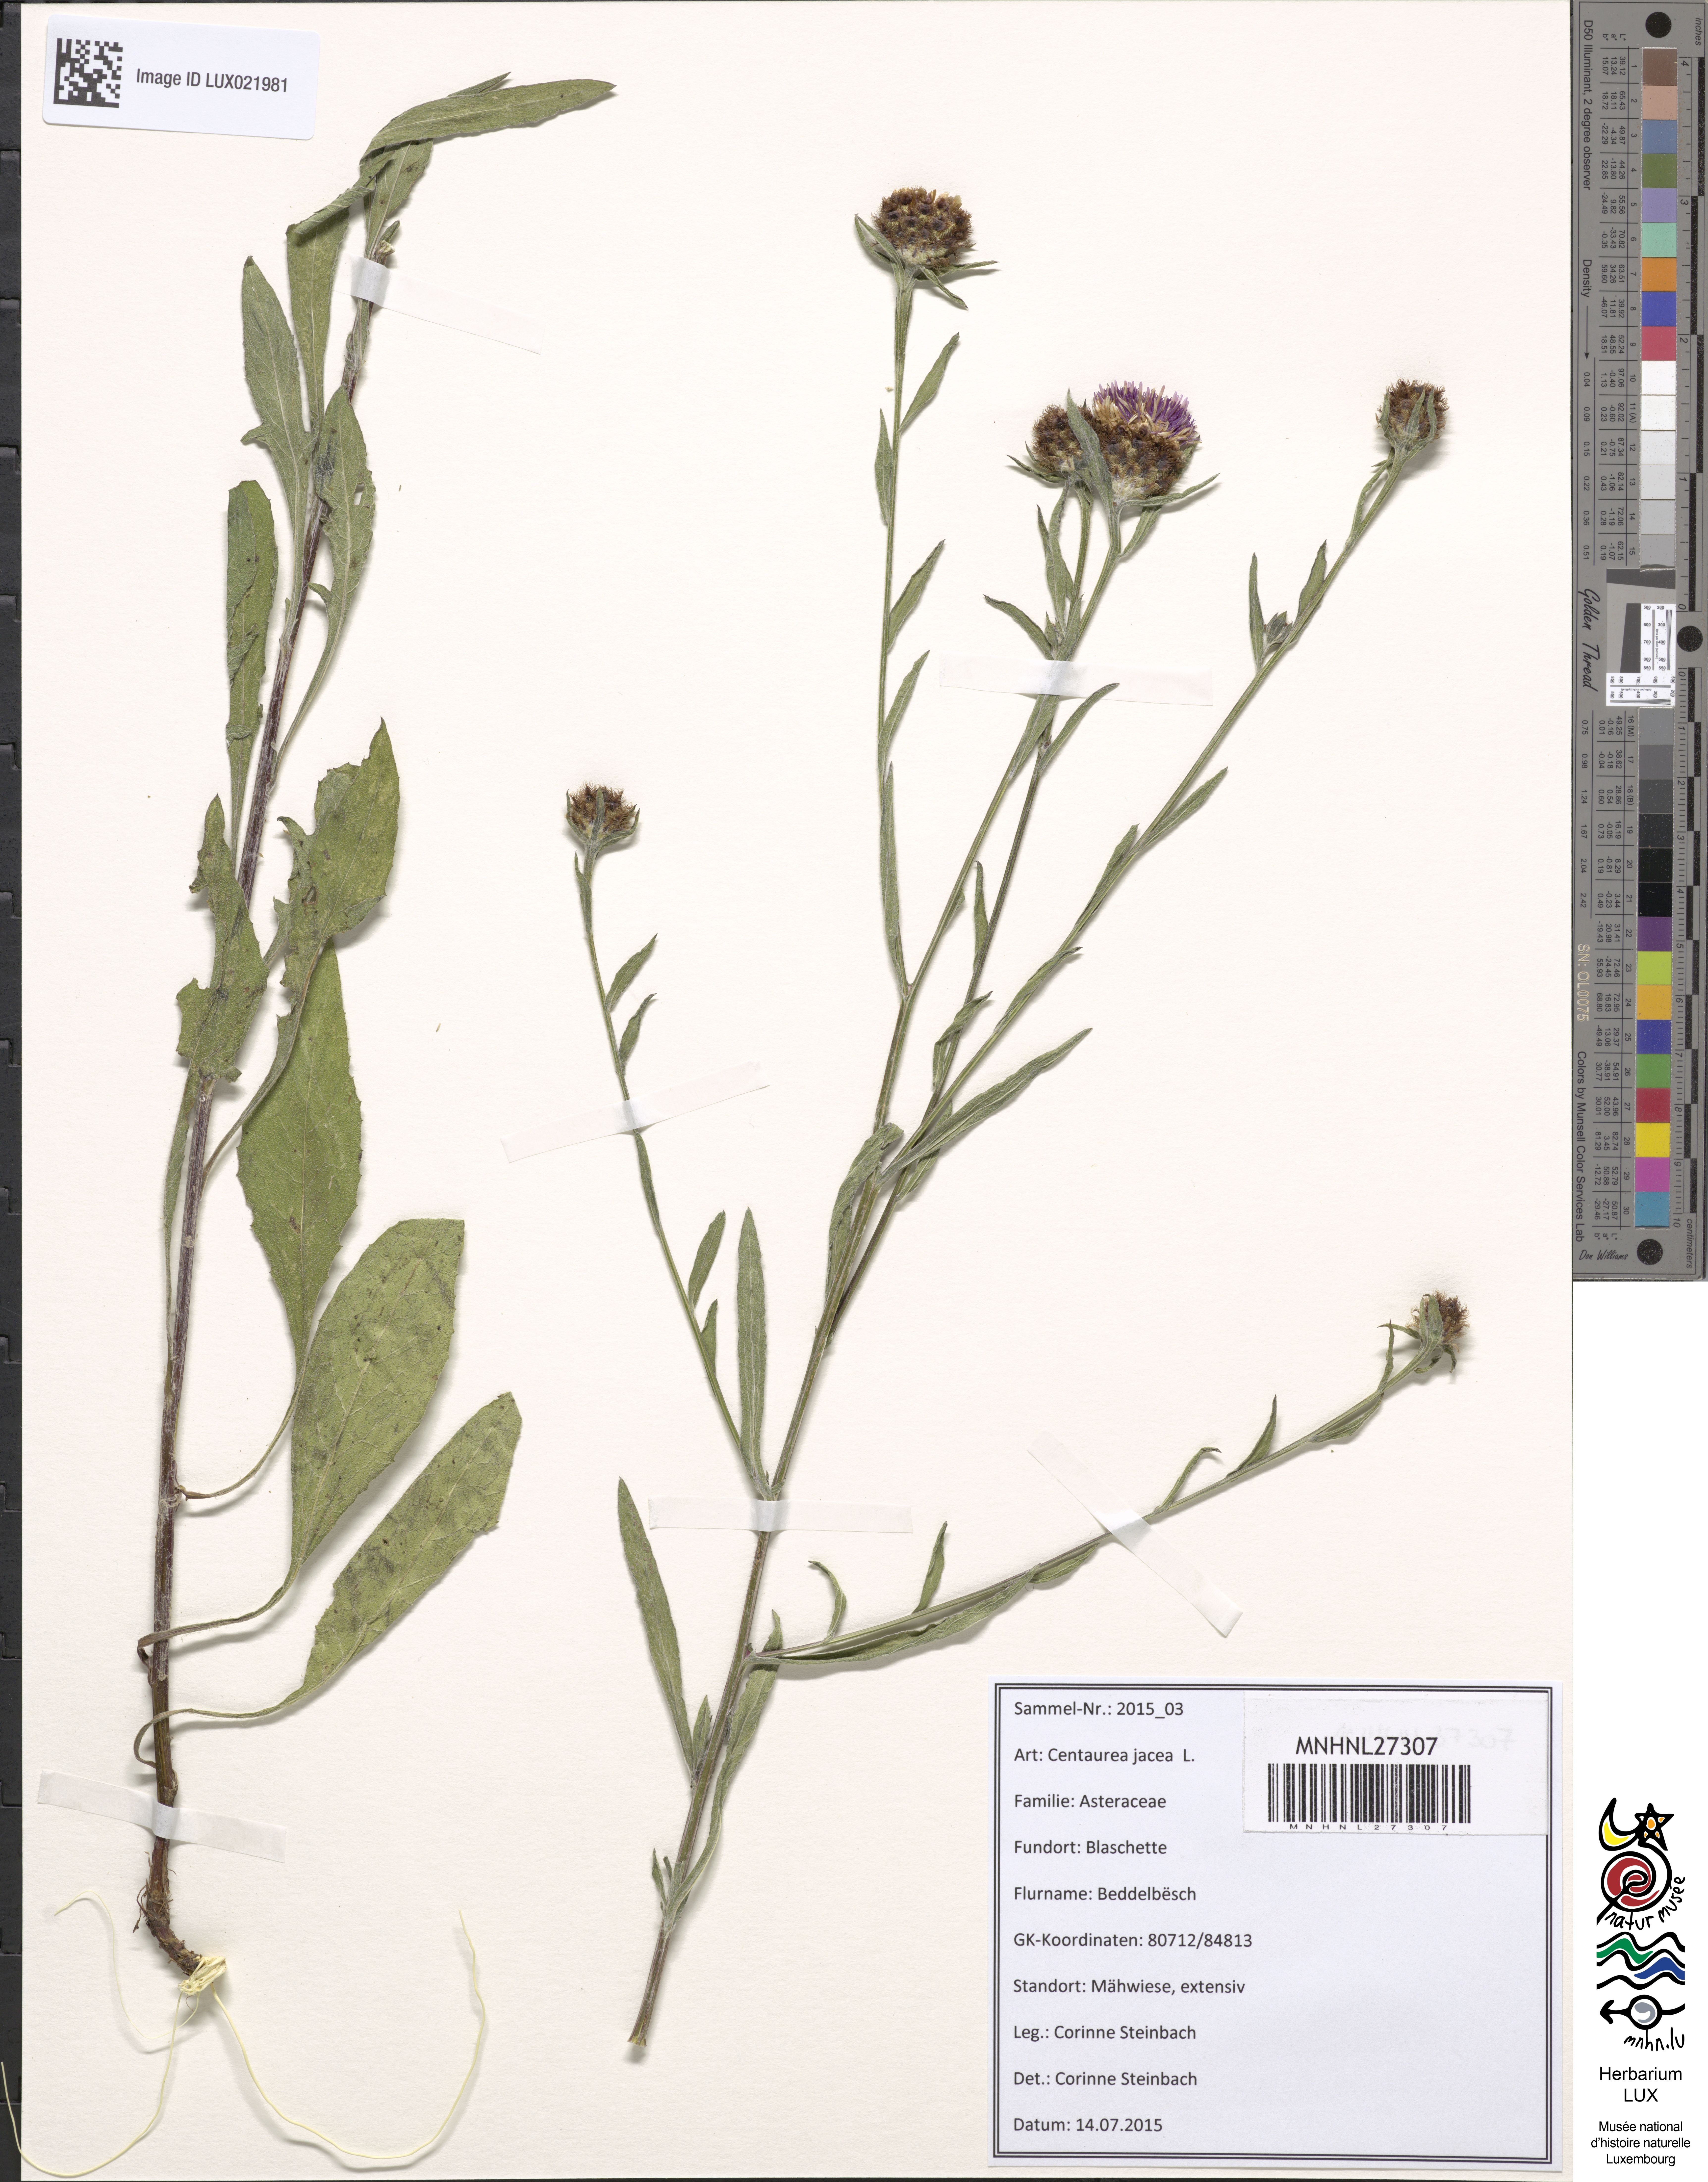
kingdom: Plantae
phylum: Tracheophyta
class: Magnoliopsida
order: Asterales
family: Asteraceae
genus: Centaurea
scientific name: Centaurea jacea
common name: Brown knapweed
